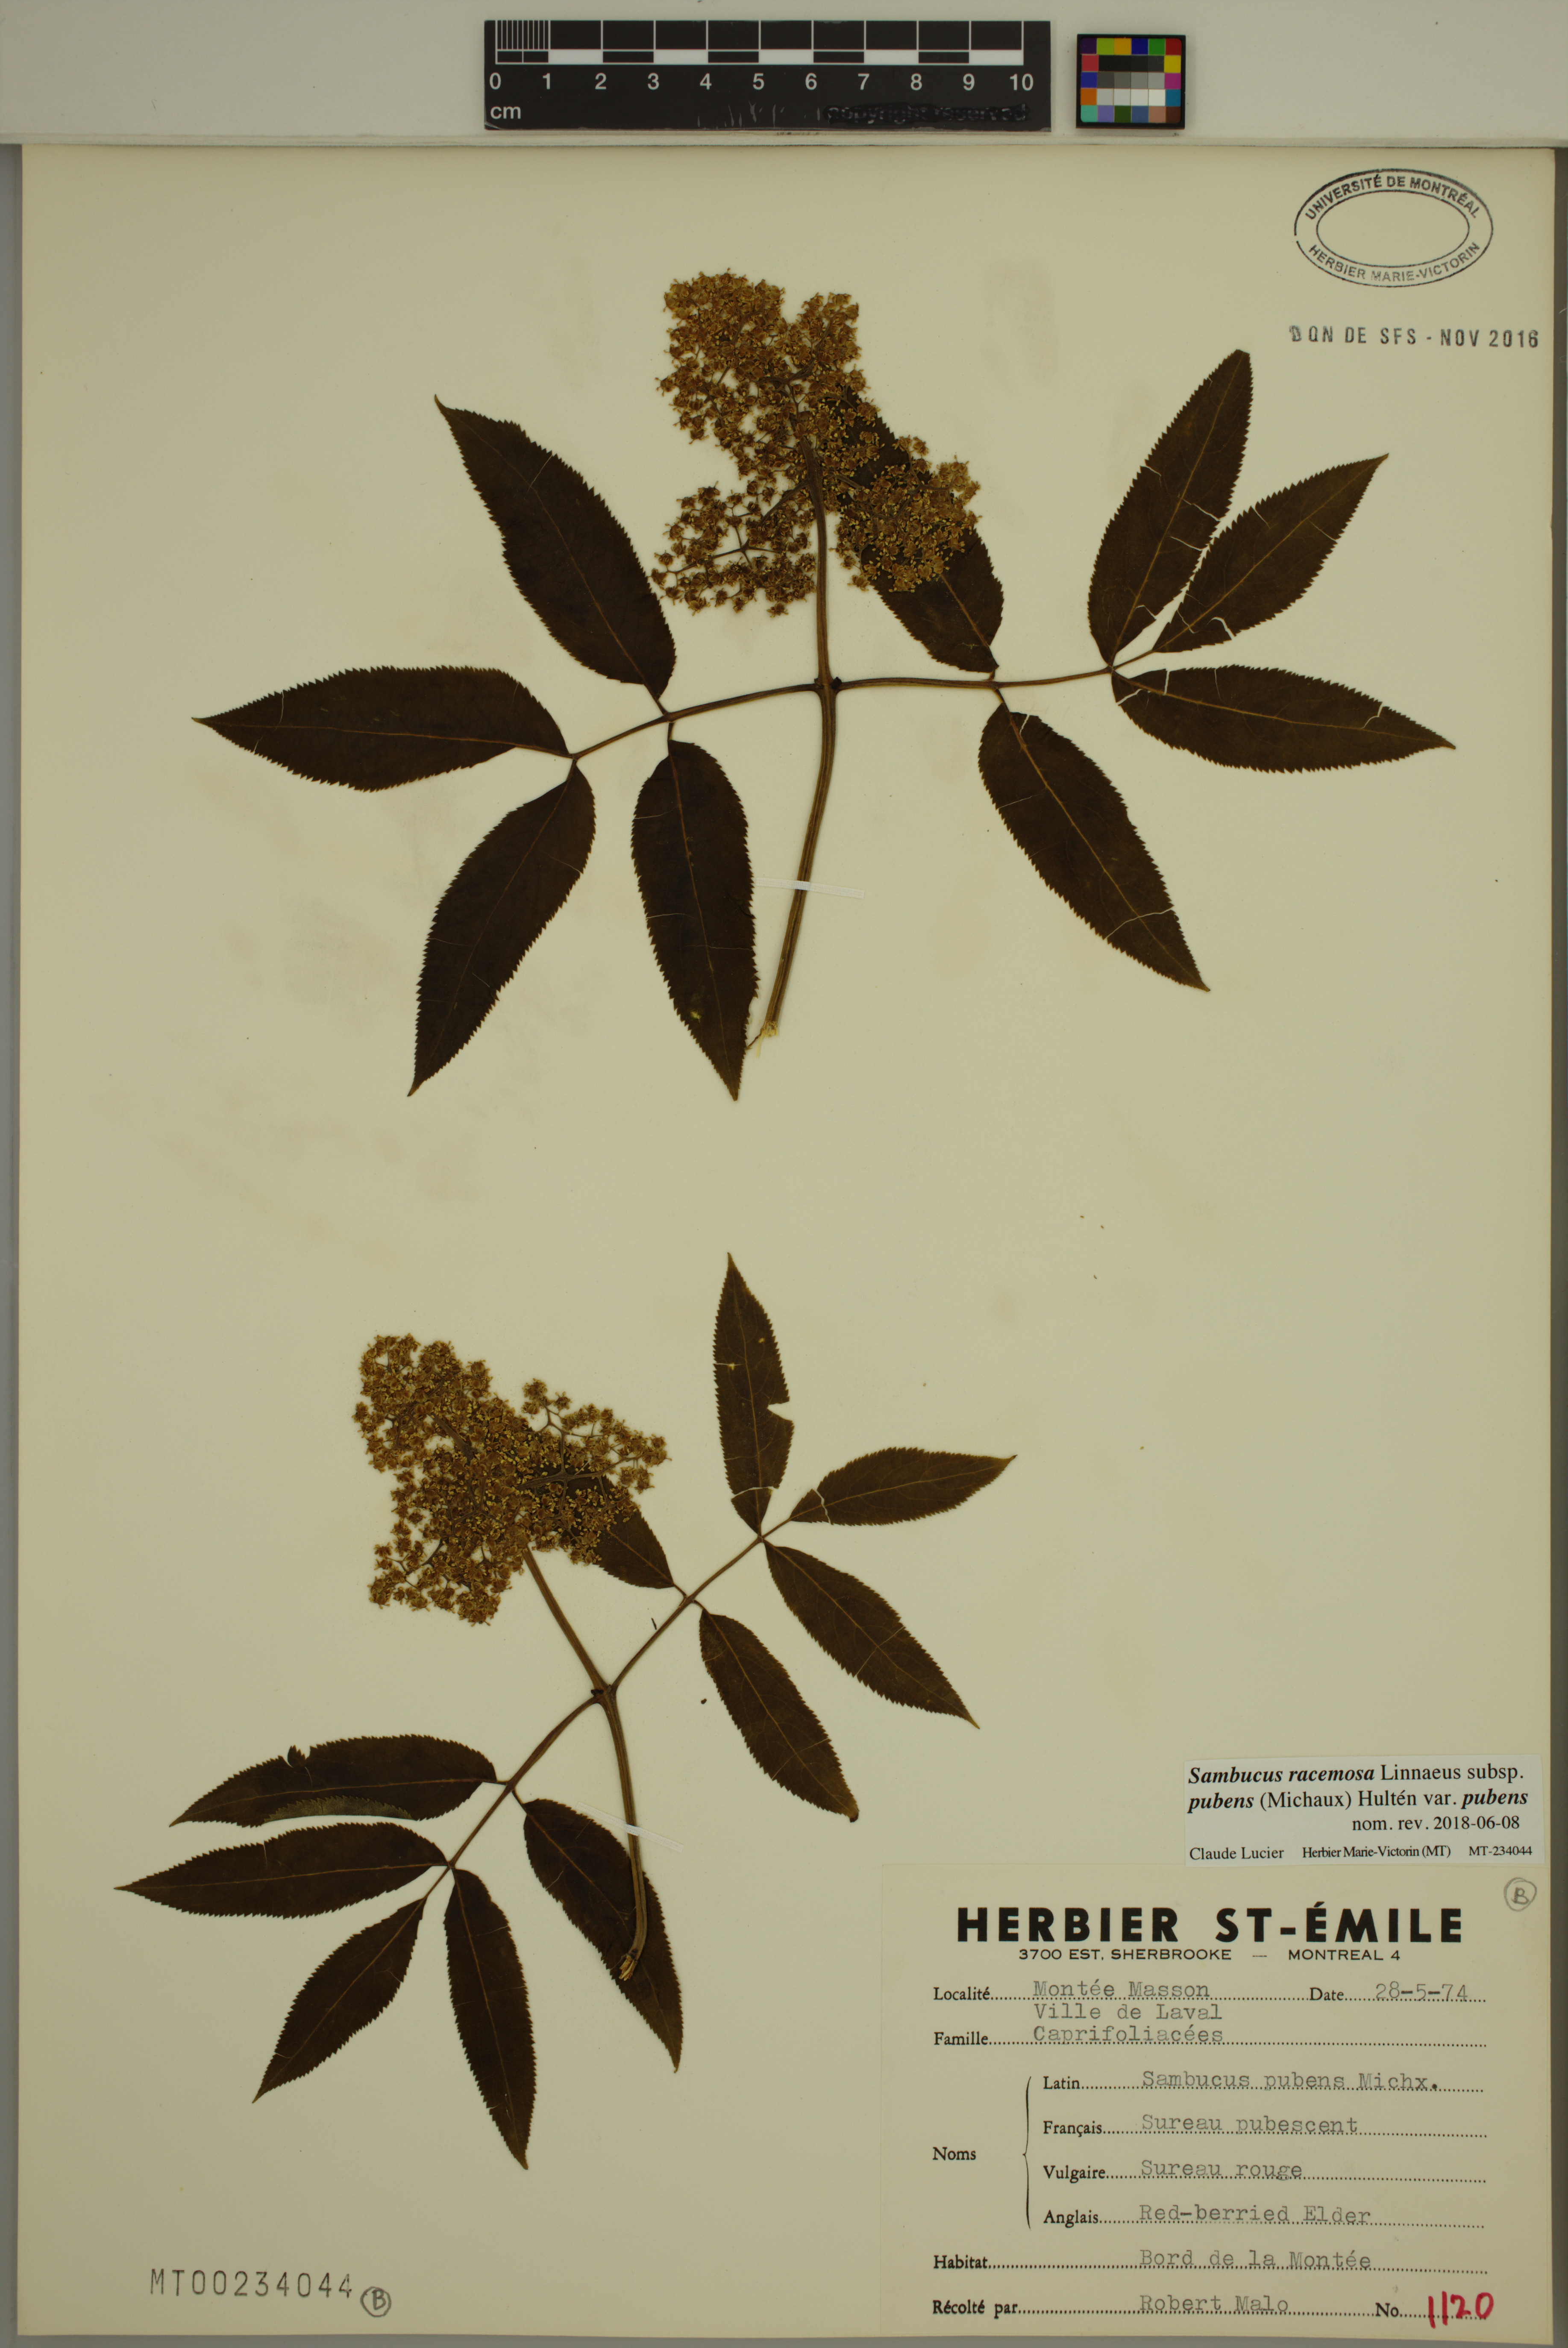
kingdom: Plantae
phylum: Tracheophyta
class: Magnoliopsida
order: Dipsacales
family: Viburnaceae
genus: Sambucus
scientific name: Sambucus racemosa
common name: Red-berried elder
